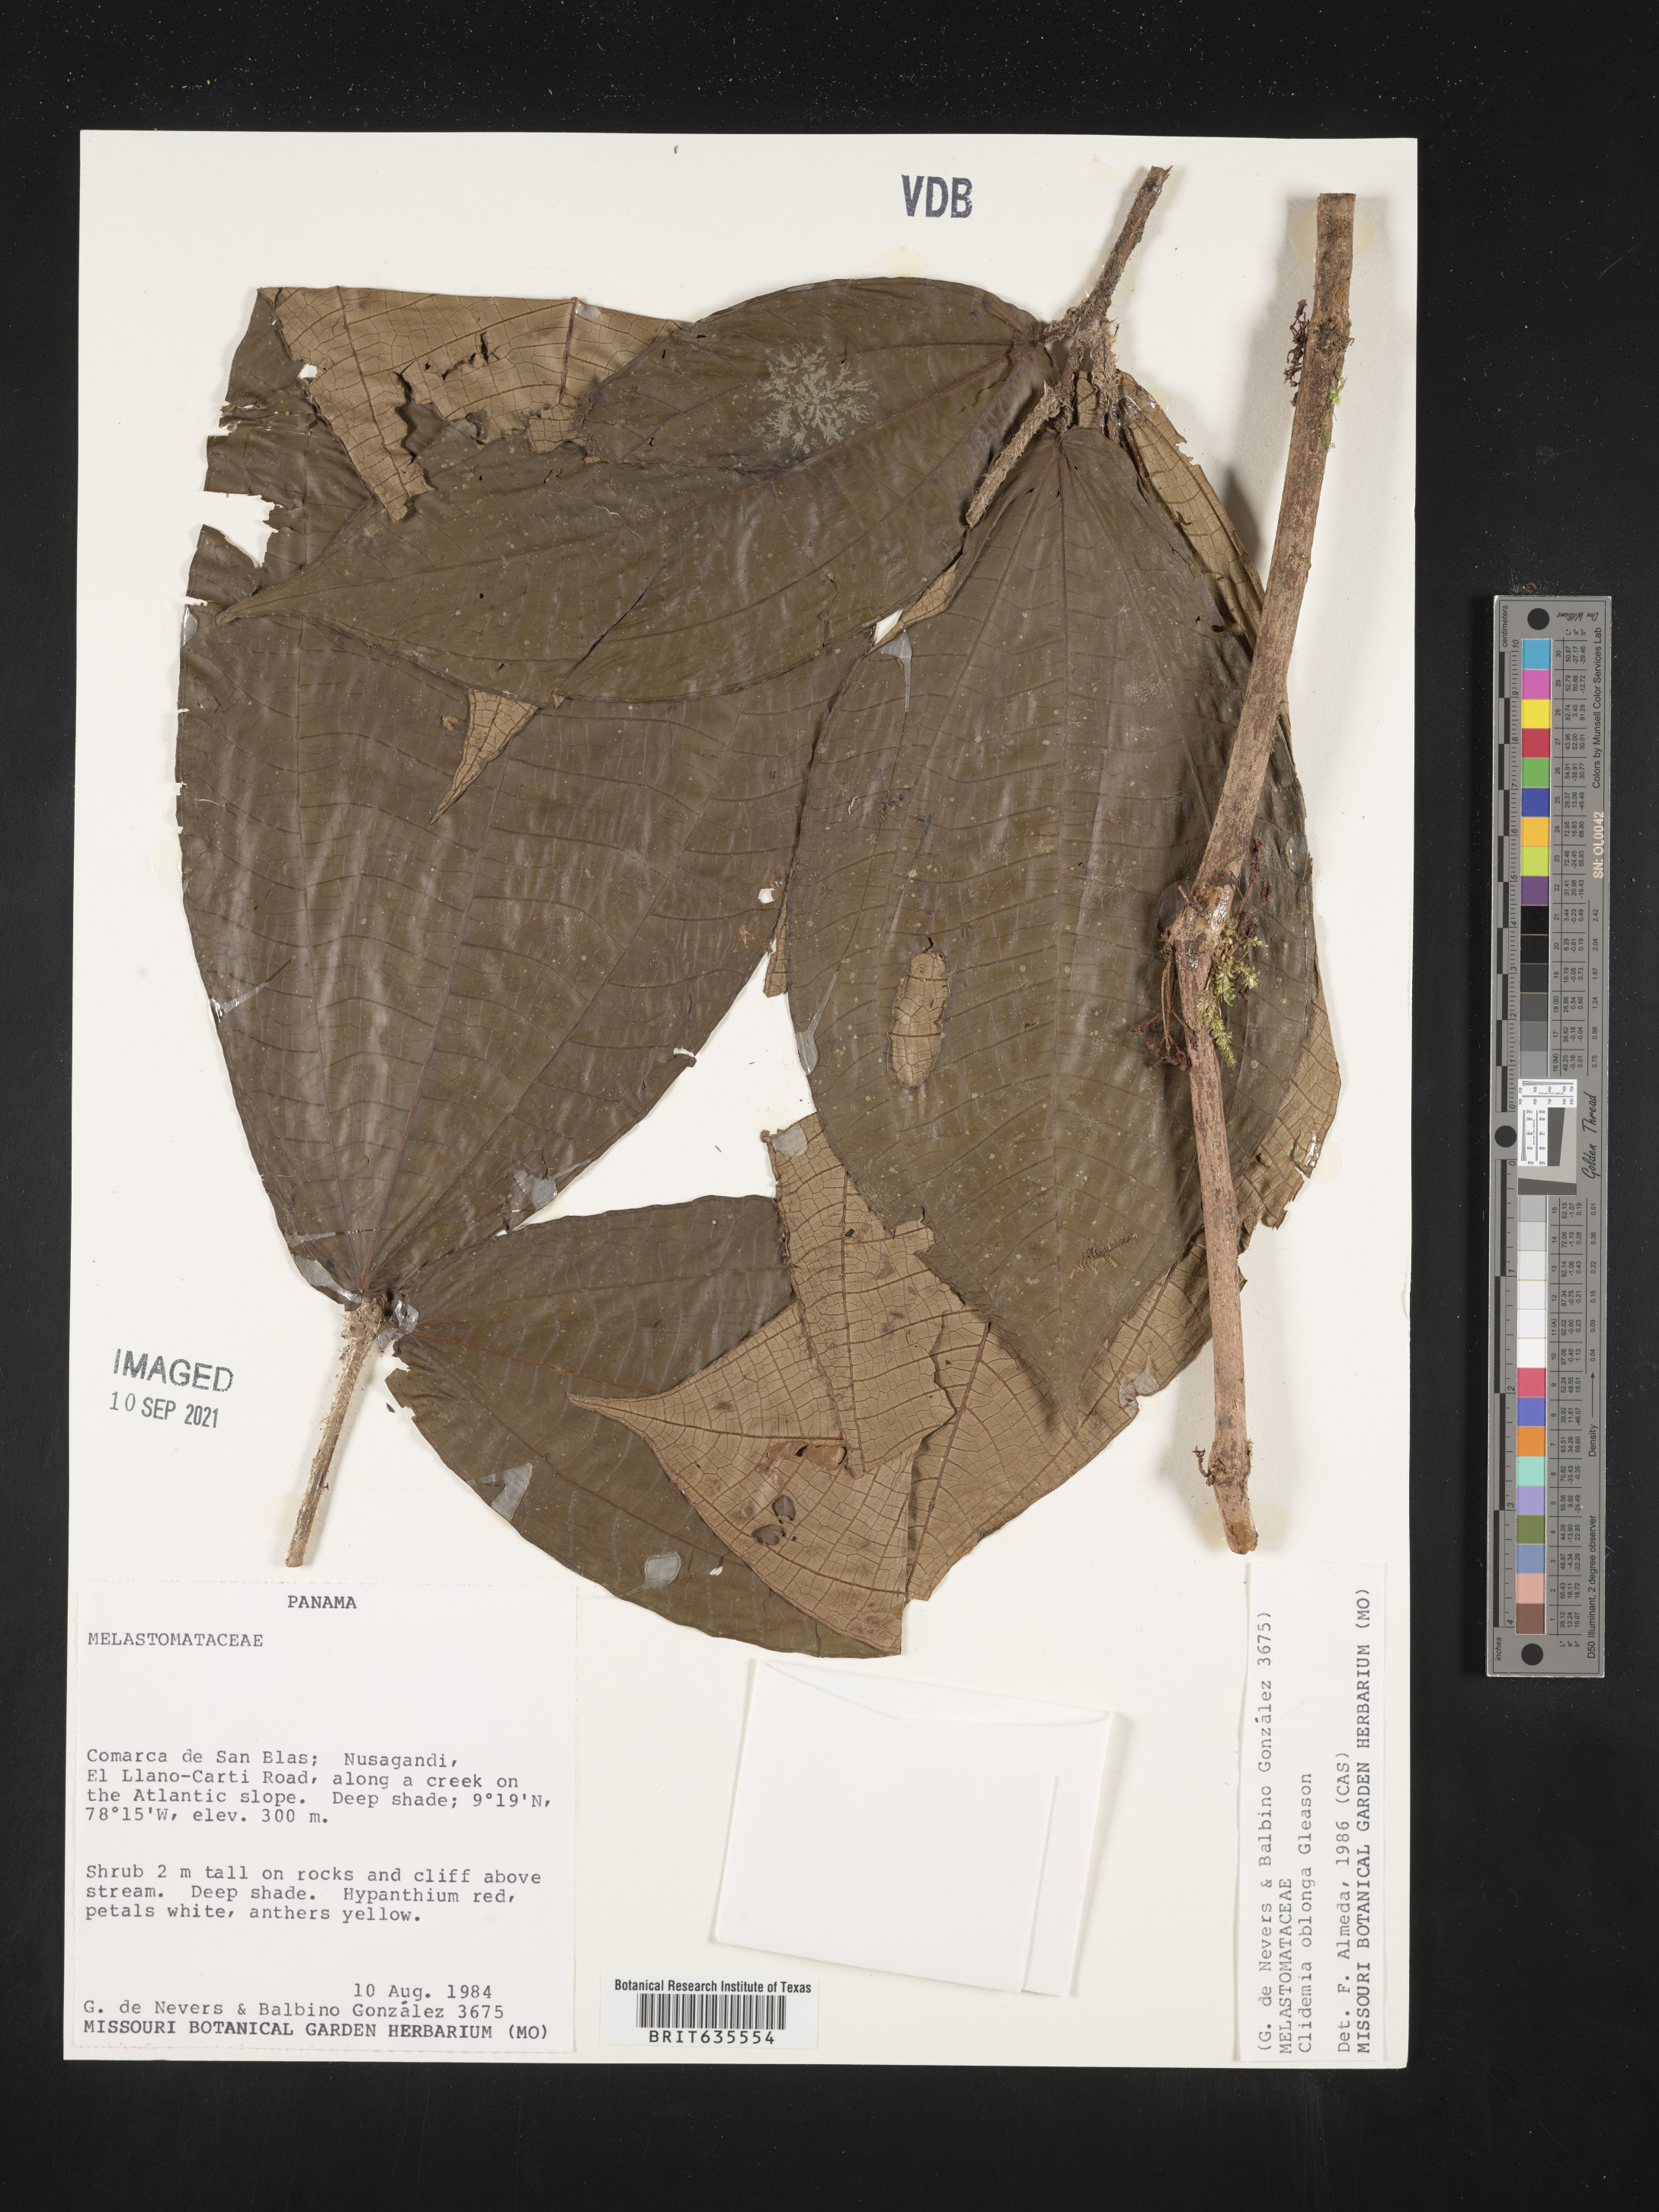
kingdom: Plantae
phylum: Tracheophyta
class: Magnoliopsida
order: Myrtales
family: Melastomataceae
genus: Miconia
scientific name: Miconia
